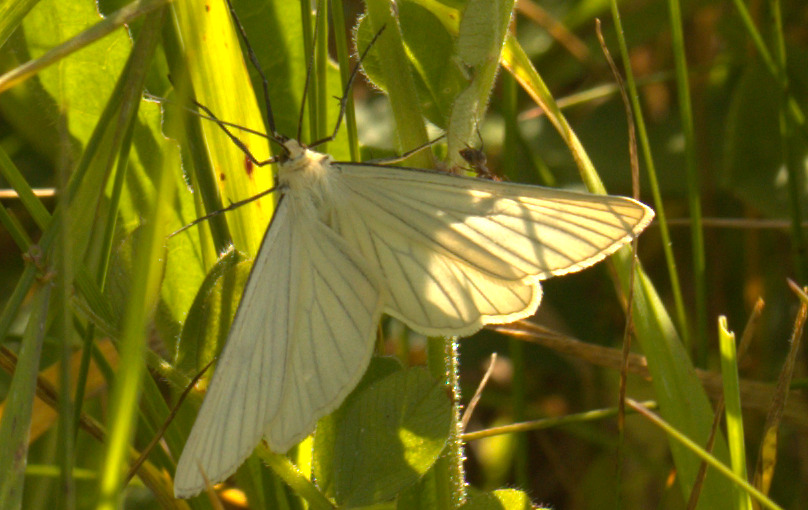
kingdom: Animalia
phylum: Arthropoda
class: Insecta
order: Lepidoptera
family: Geometridae
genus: Siona
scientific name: Siona lineata
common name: Hvidvingemåler
